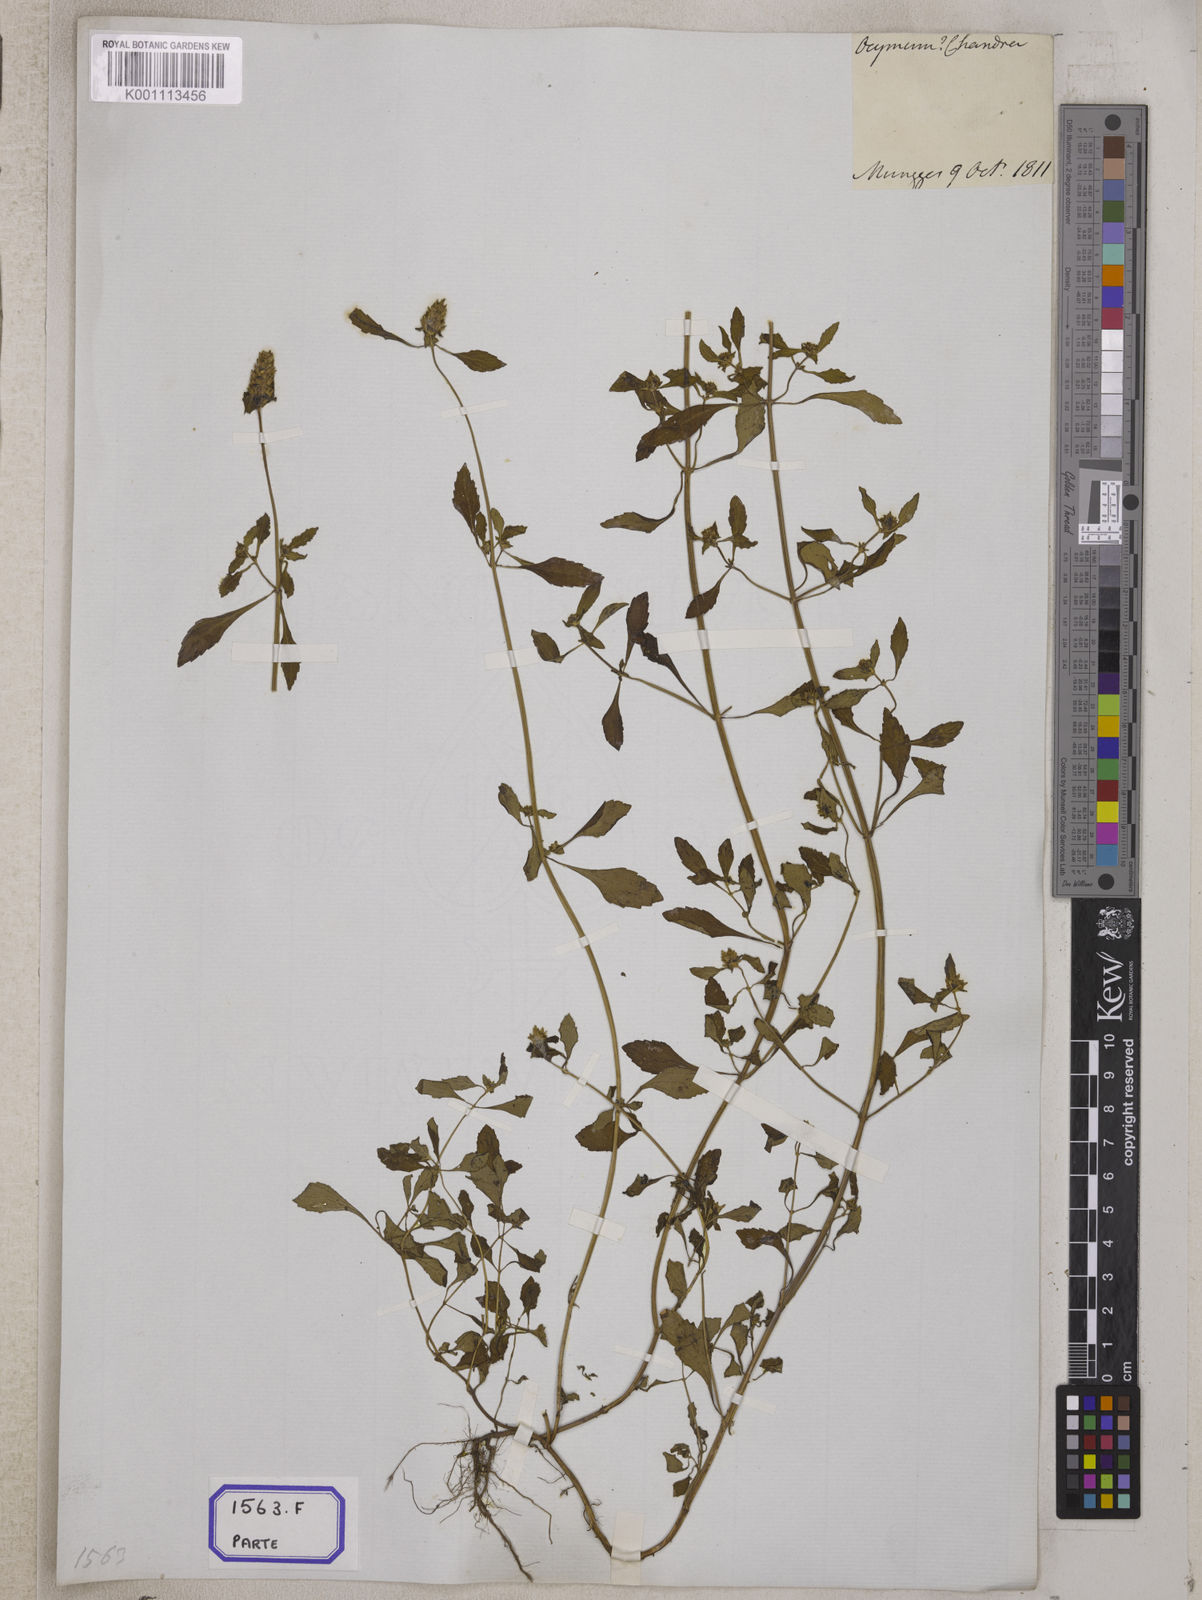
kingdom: Plantae
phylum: Tracheophyta
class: Magnoliopsida
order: Lamiales
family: Lamiaceae
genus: Platostoma
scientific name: Platostoma hispidum
